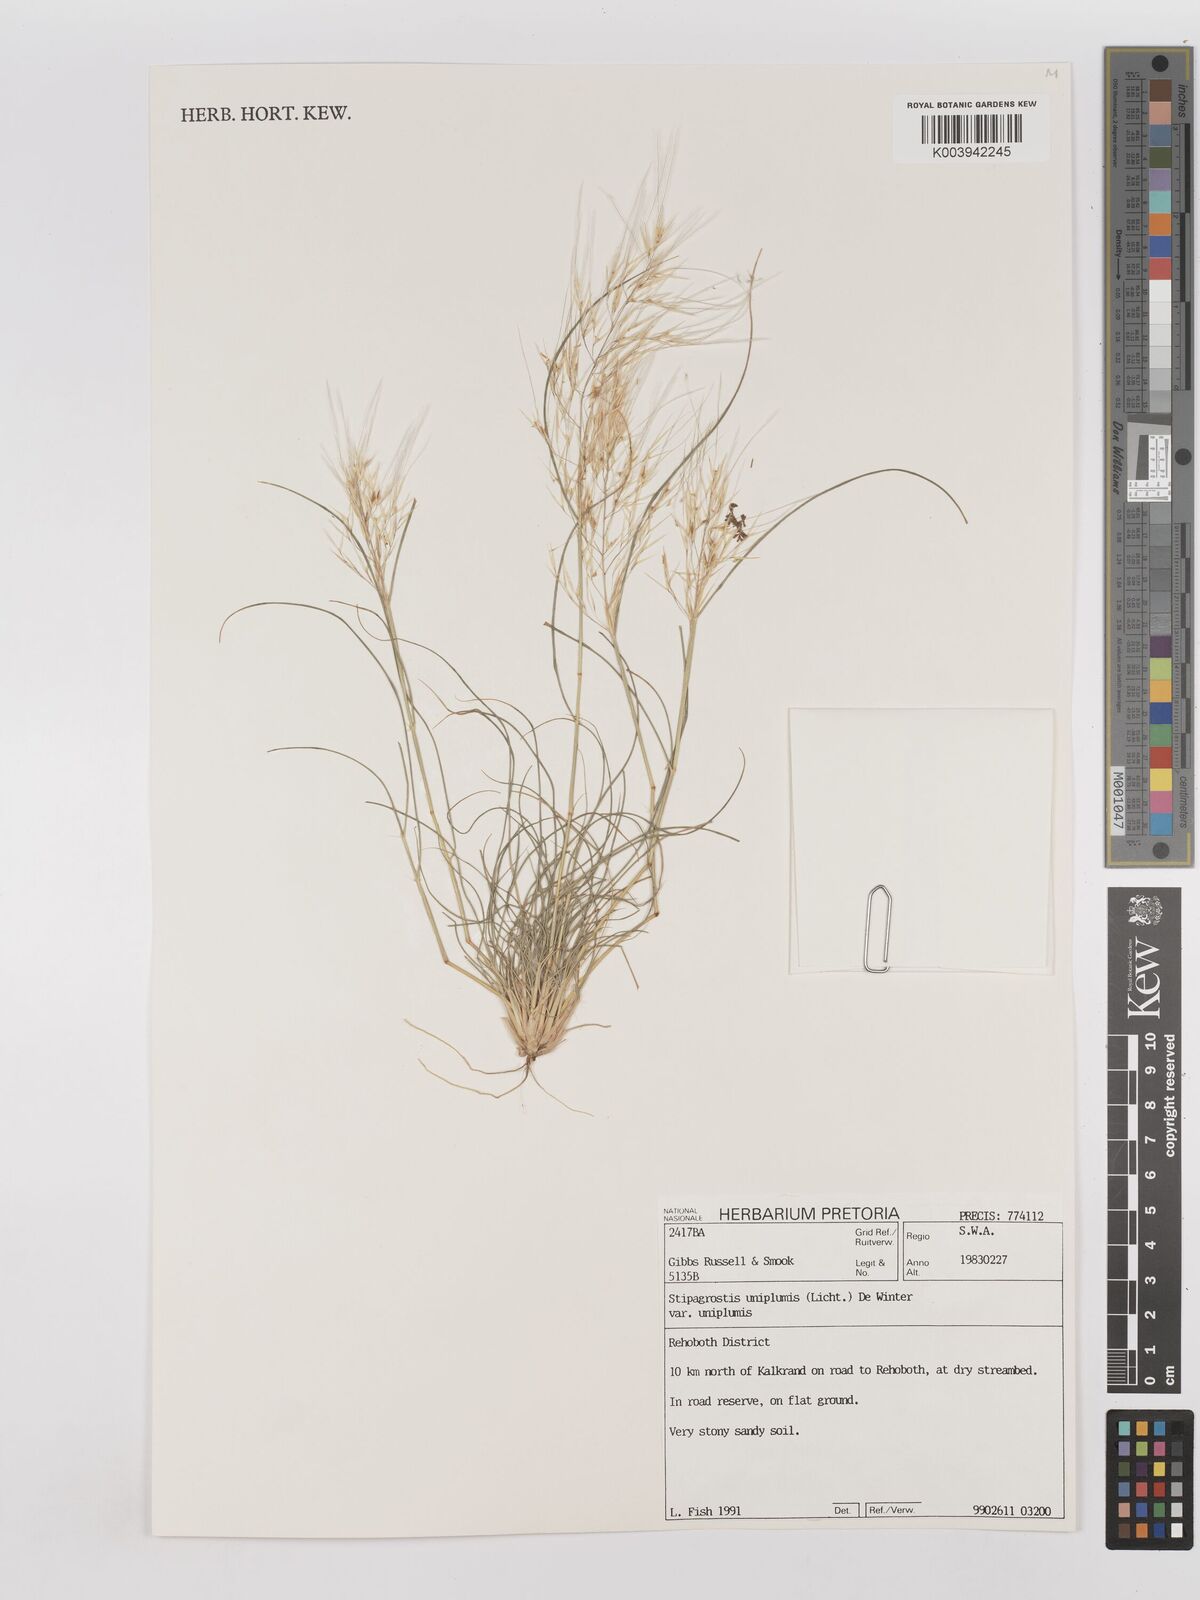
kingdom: Plantae
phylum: Tracheophyta
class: Liliopsida
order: Poales
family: Poaceae
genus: Stipagrostis
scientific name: Stipagrostis uniplumis
